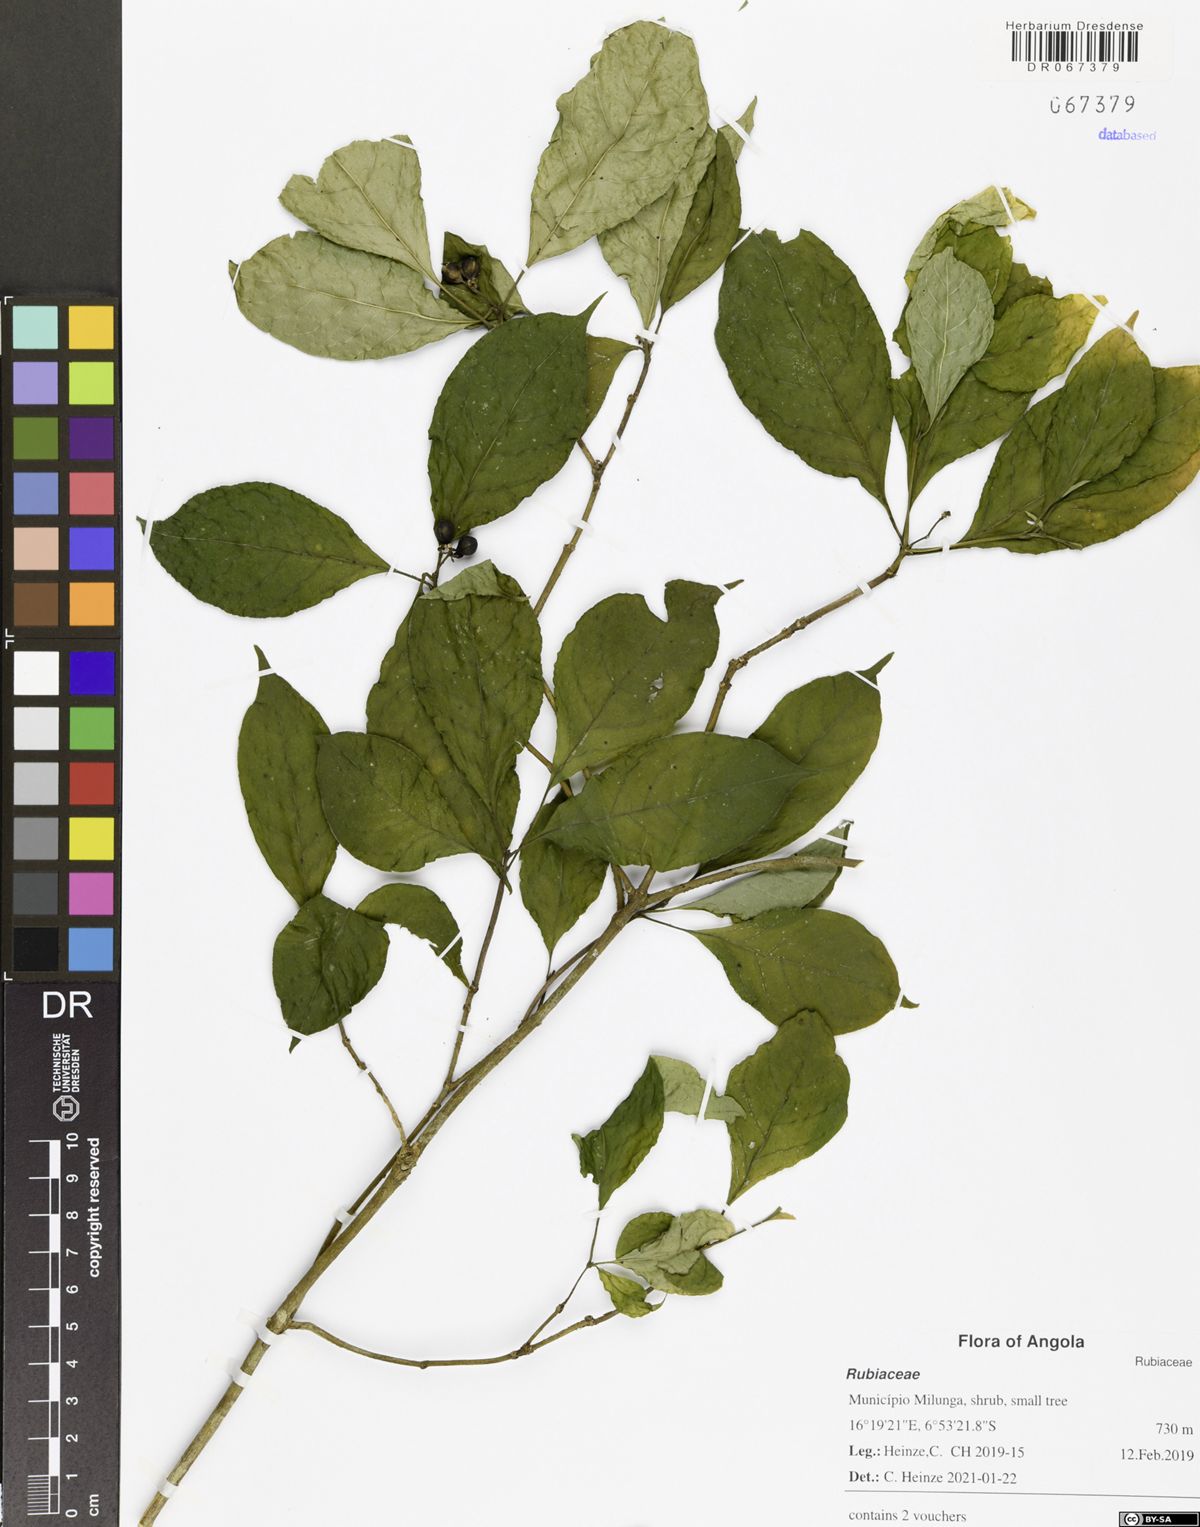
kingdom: Plantae
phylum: Tracheophyta
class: Magnoliopsida
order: Gentianales
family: Rubiaceae
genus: Eumachia
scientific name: Eumachia gossweileri
